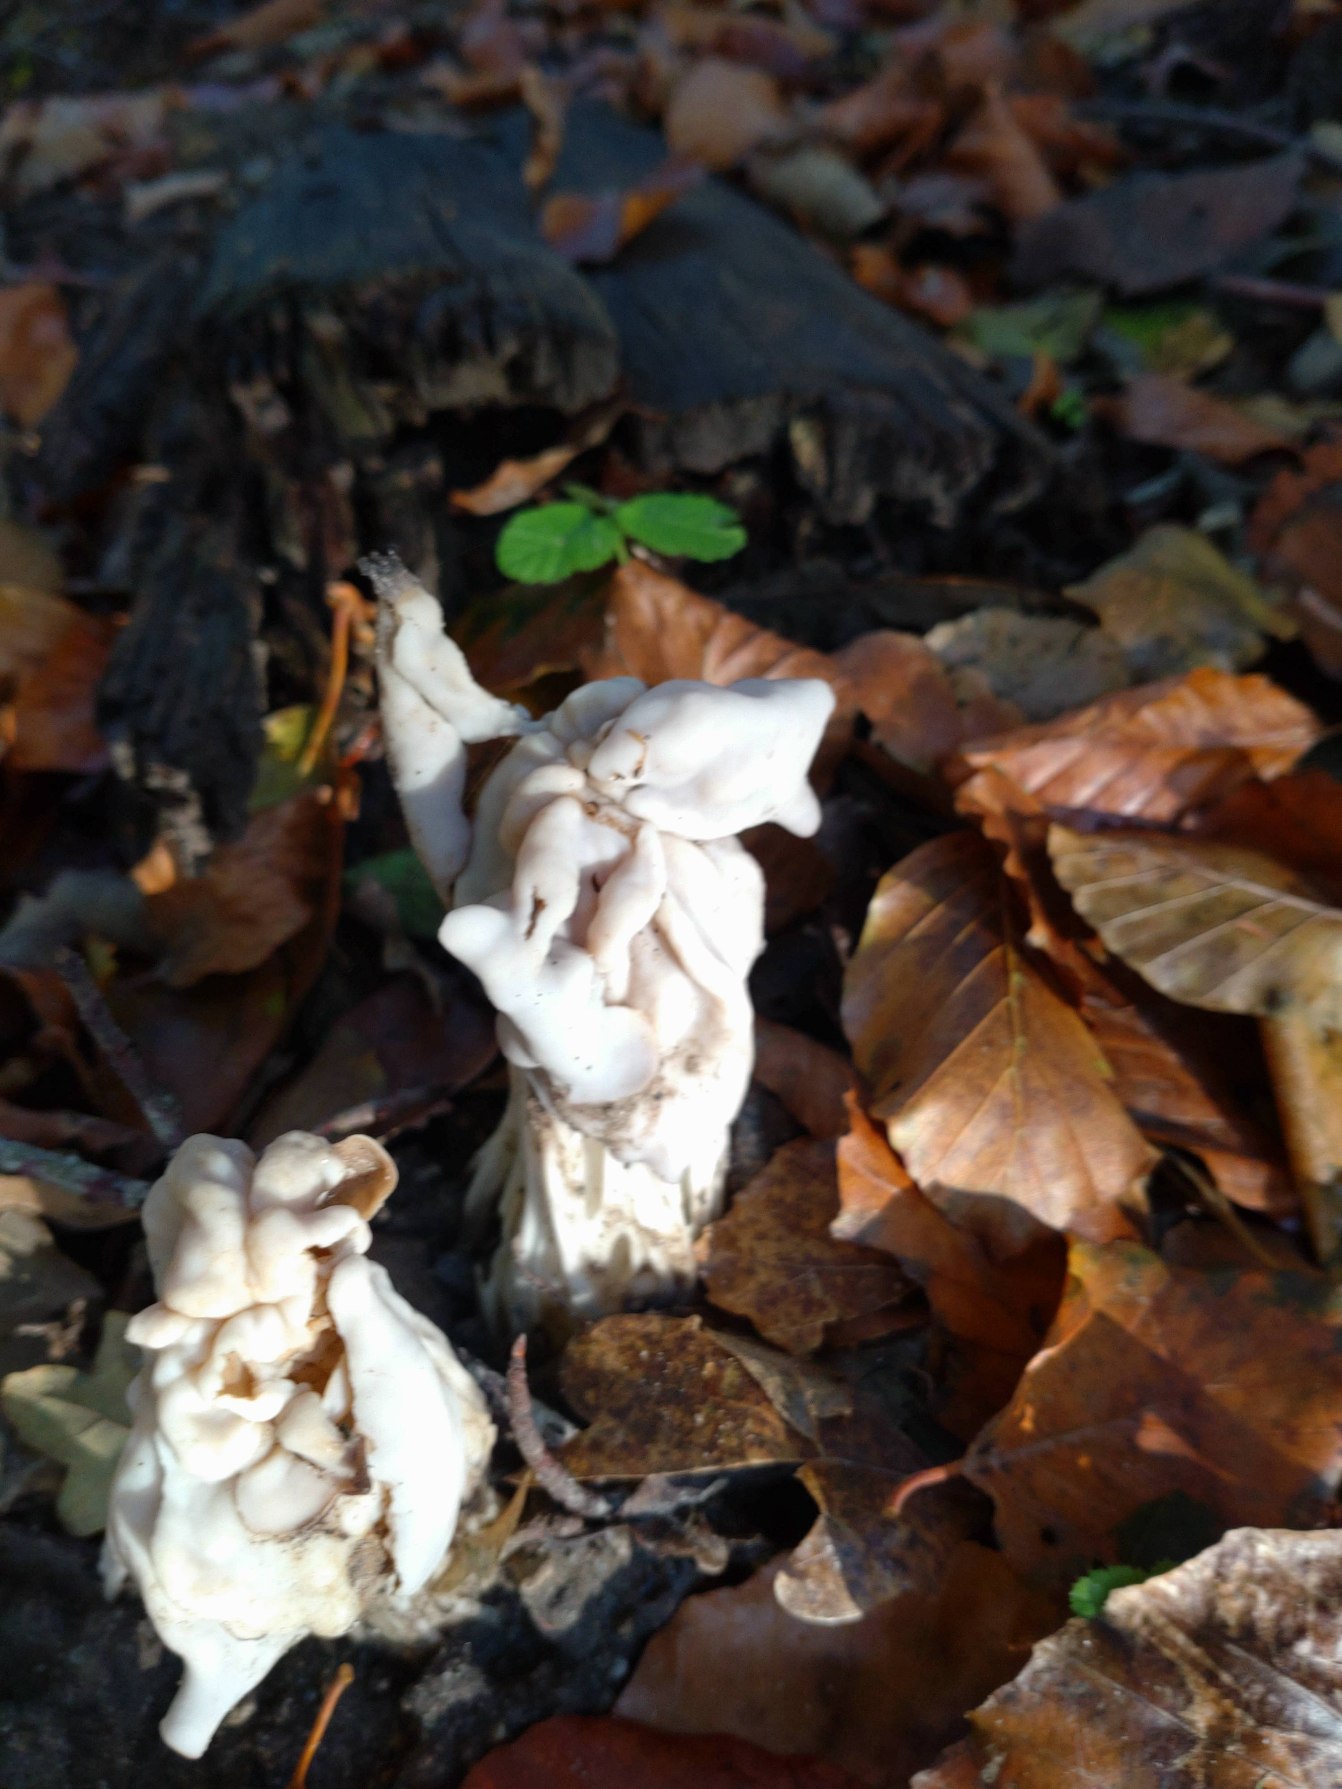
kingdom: Fungi
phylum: Ascomycota
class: Pezizomycetes
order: Pezizales
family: Helvellaceae
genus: Helvella
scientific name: Helvella crispa
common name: Kruset foldhat
